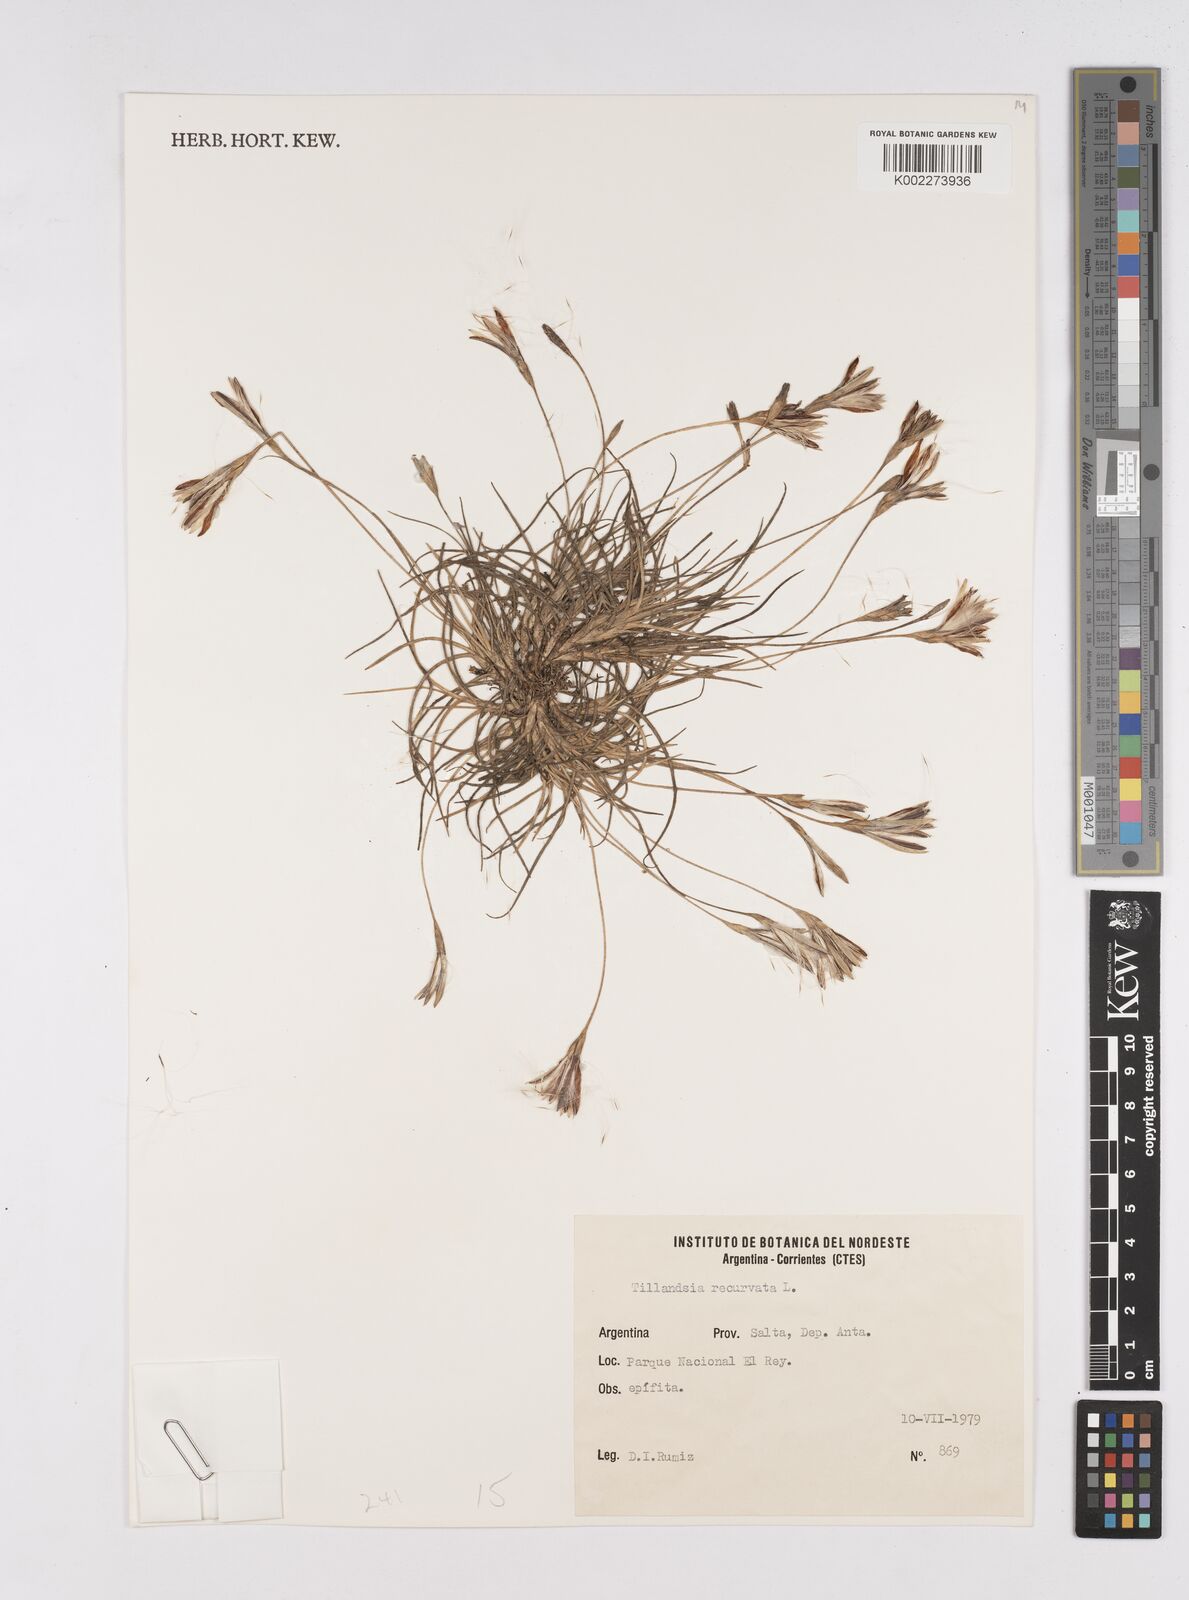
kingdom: Plantae
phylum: Tracheophyta
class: Liliopsida
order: Poales
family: Bromeliaceae
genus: Tillandsia
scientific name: Tillandsia recurvata
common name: Small ballmoss
